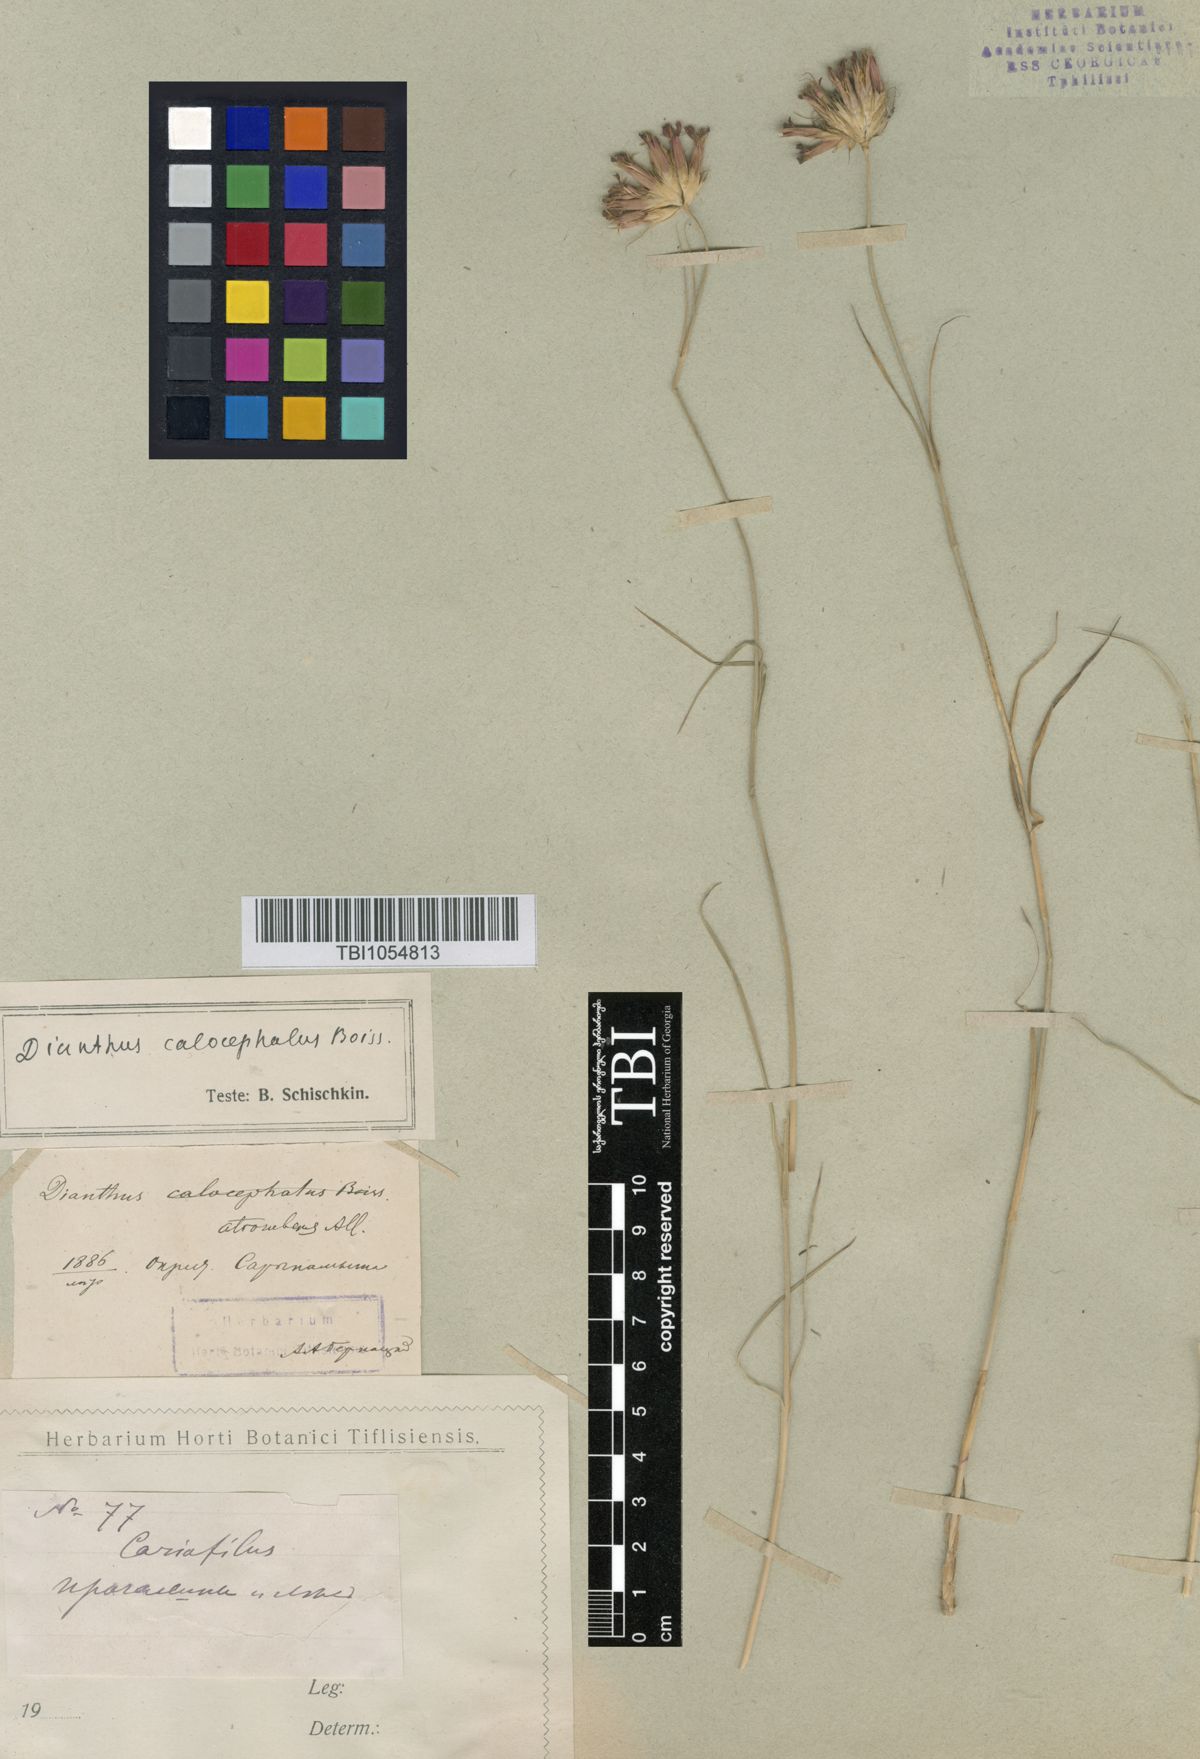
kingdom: Plantae
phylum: Tracheophyta
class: Magnoliopsida
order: Caryophyllales
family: Caryophyllaceae
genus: Dianthus
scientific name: Dianthus cruentus
